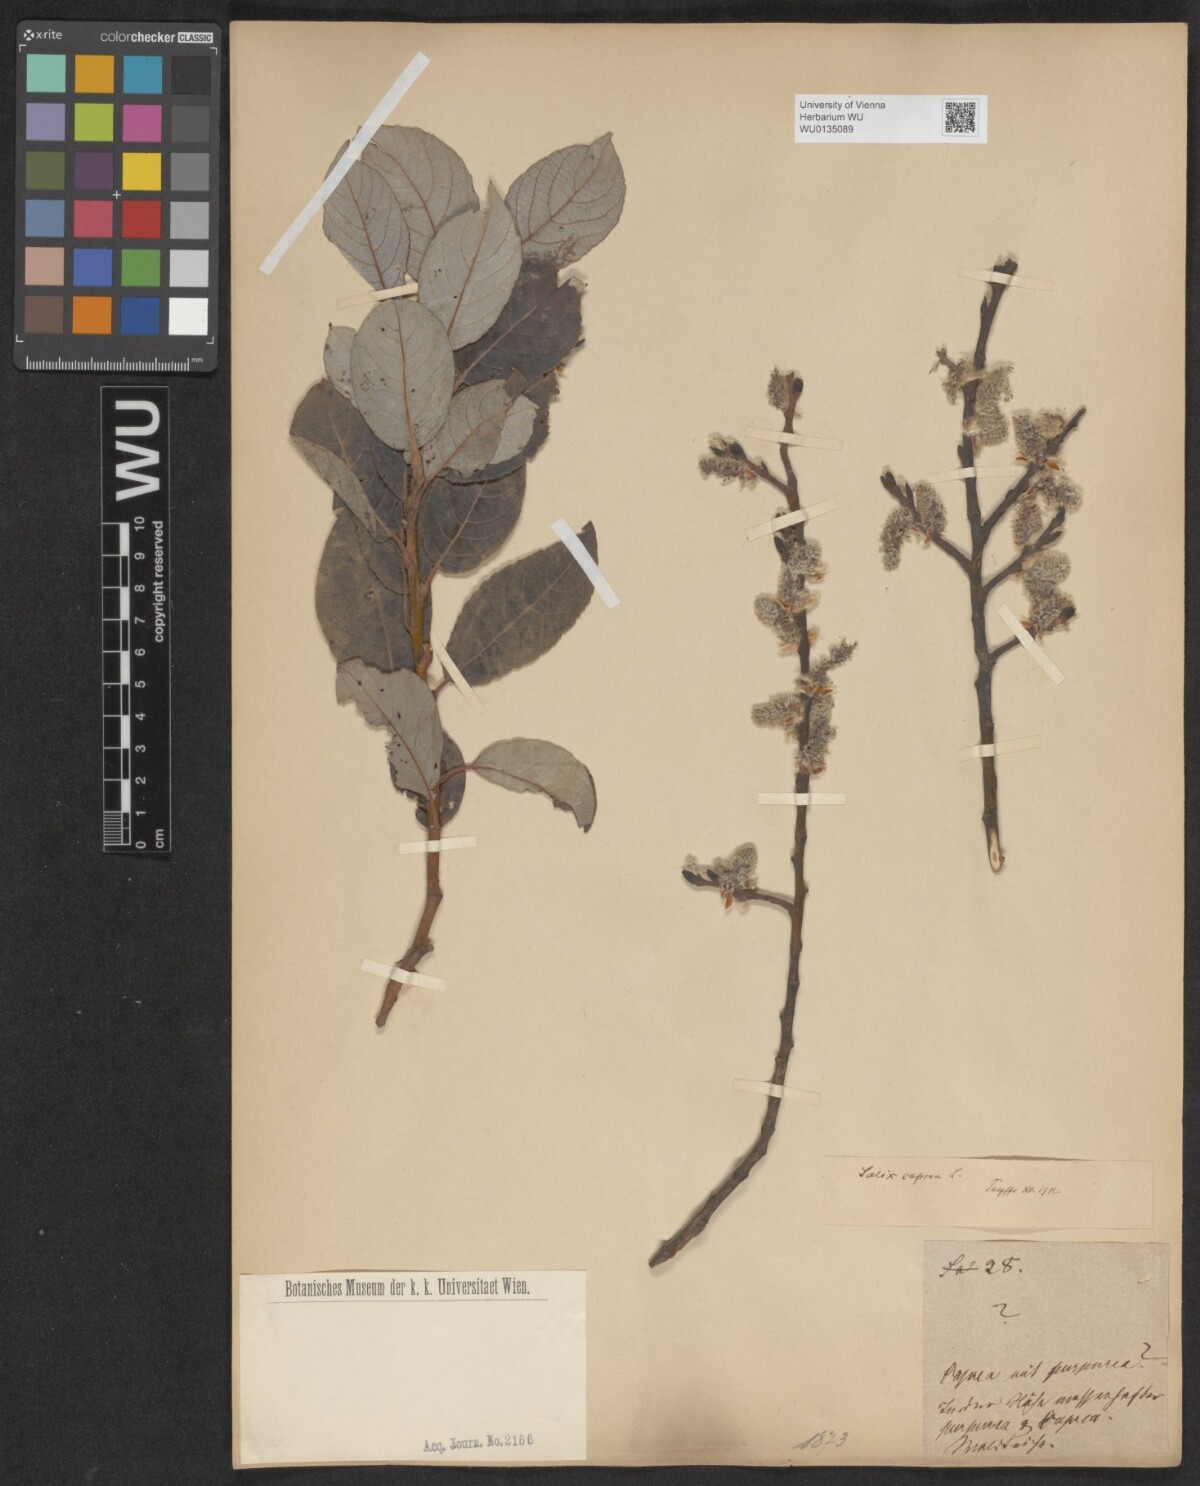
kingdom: Plantae
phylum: Tracheophyta
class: Magnoliopsida
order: Malpighiales
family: Salicaceae
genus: Salix
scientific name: Salix caprea
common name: Goat willow
